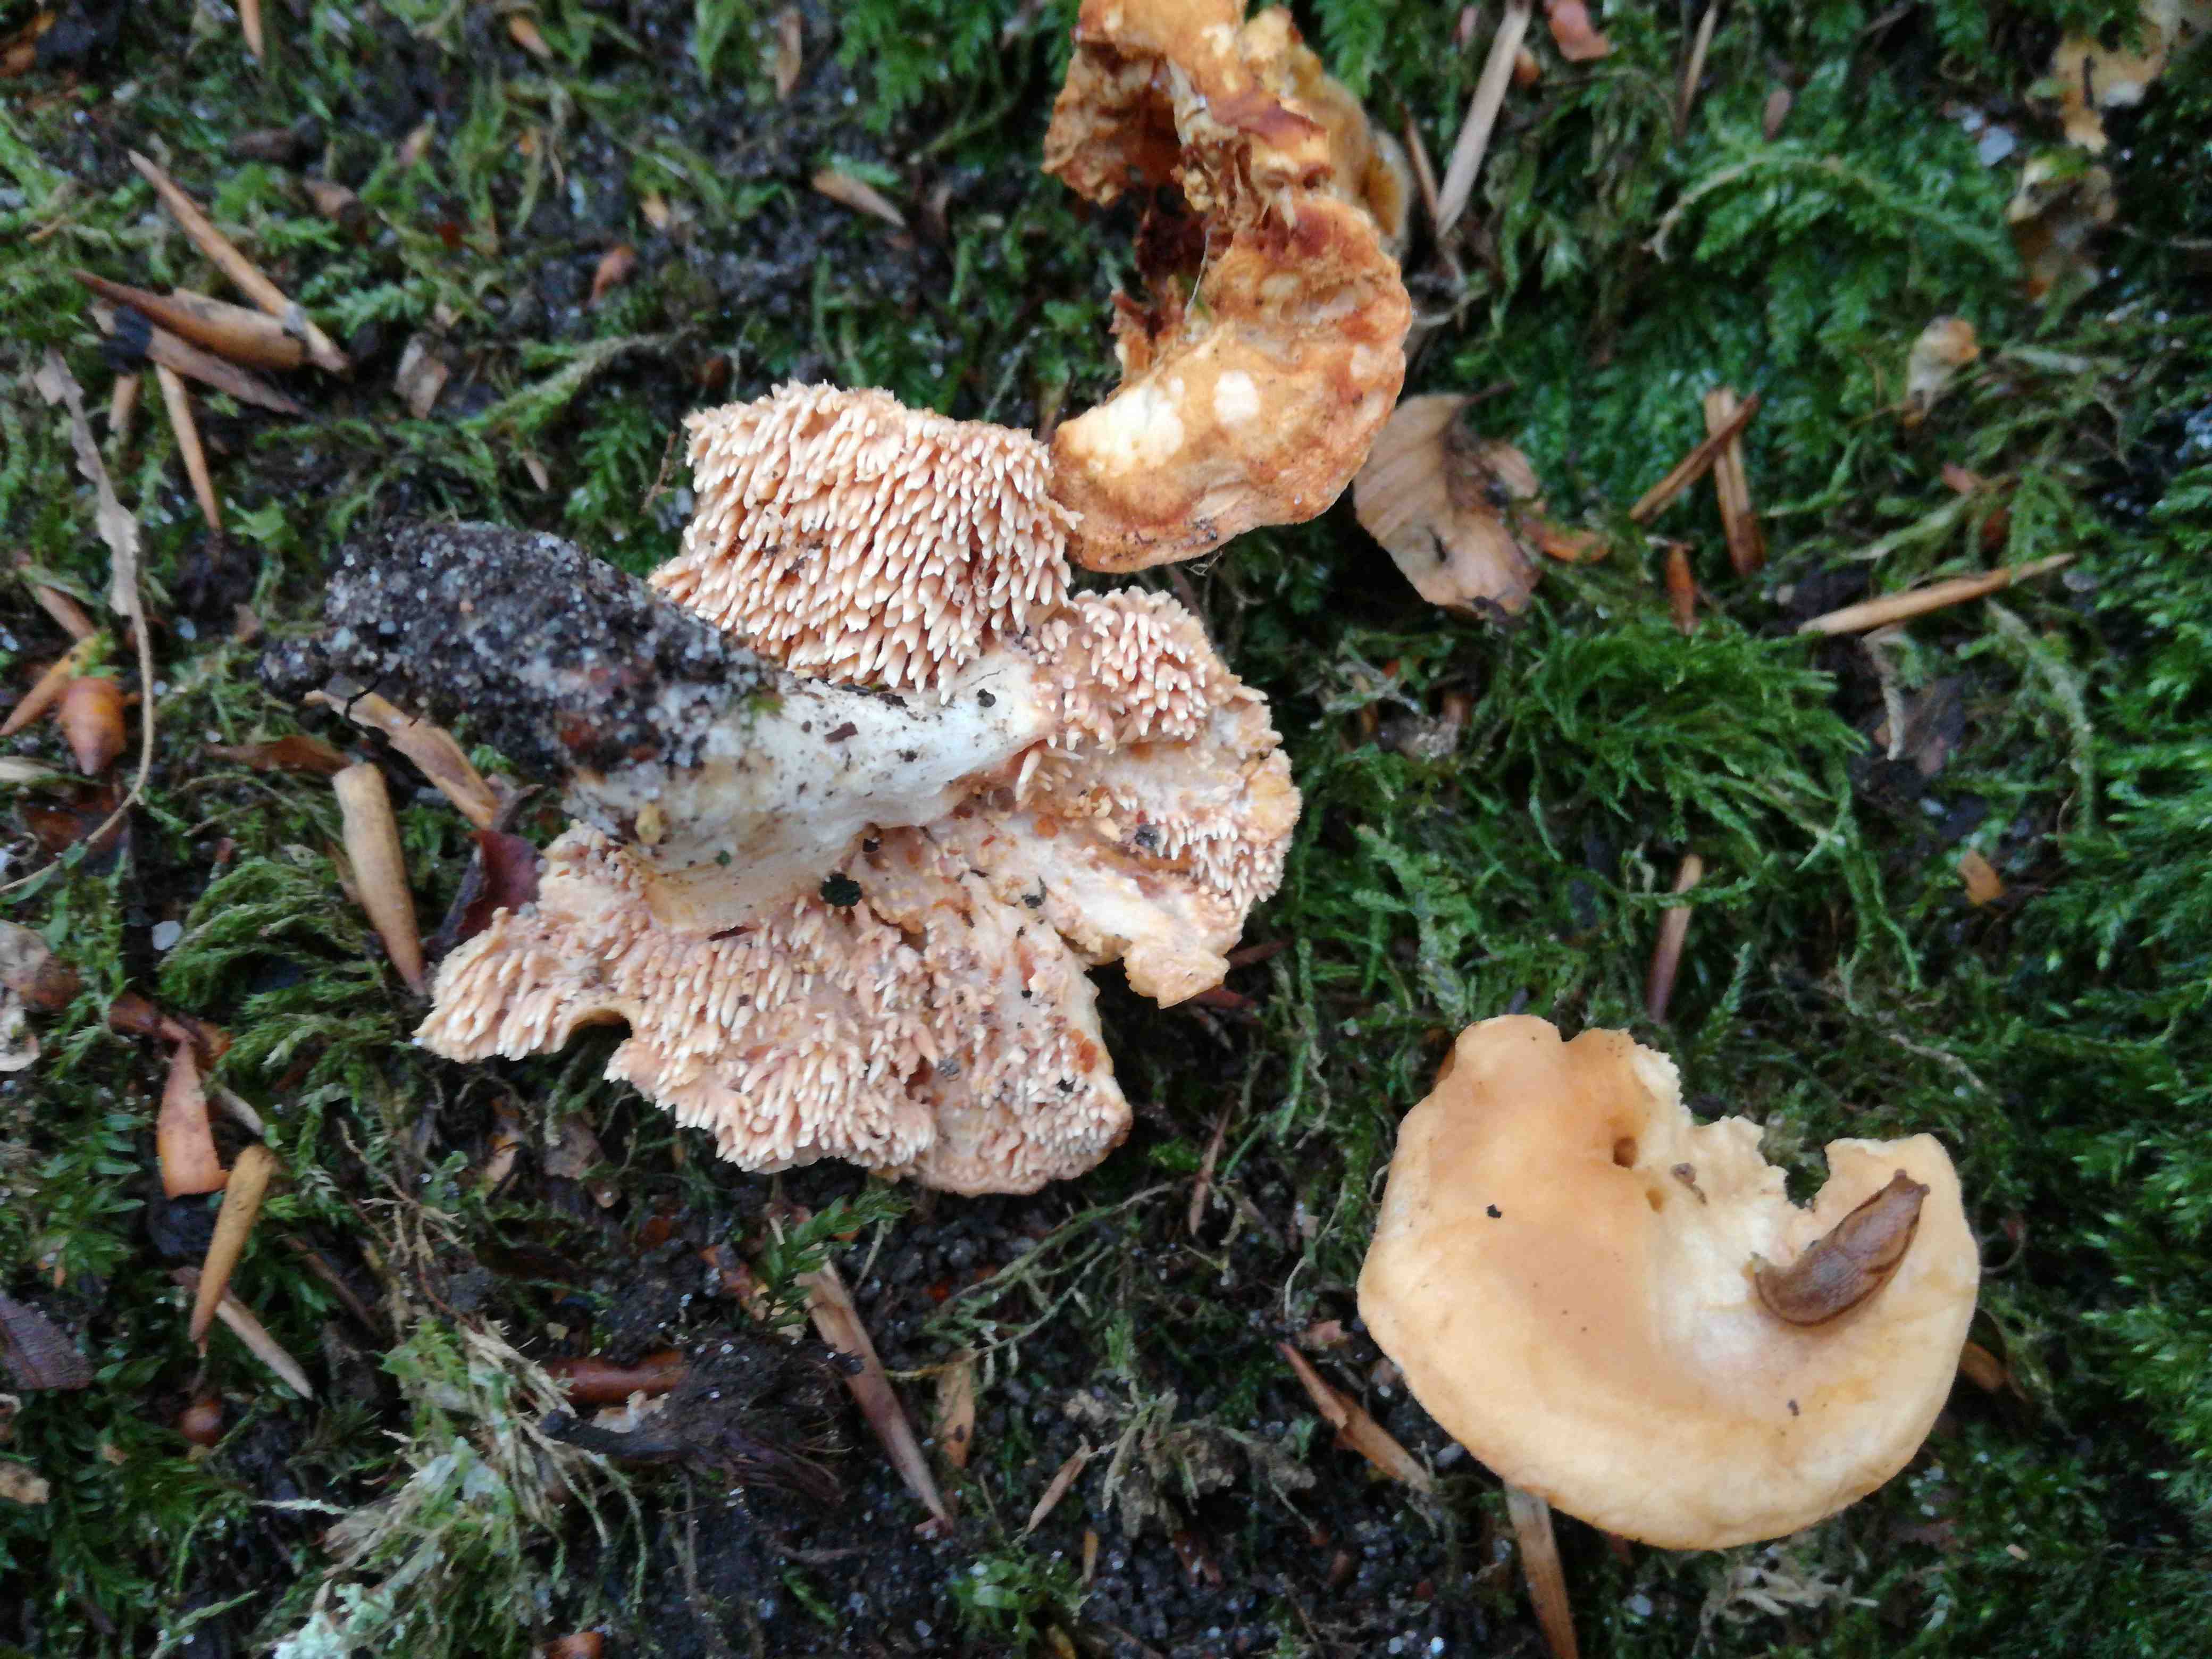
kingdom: Fungi
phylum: Basidiomycota
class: Agaricomycetes
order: Cantharellales
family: Hydnaceae
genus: Hydnum
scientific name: Hydnum rufescens
